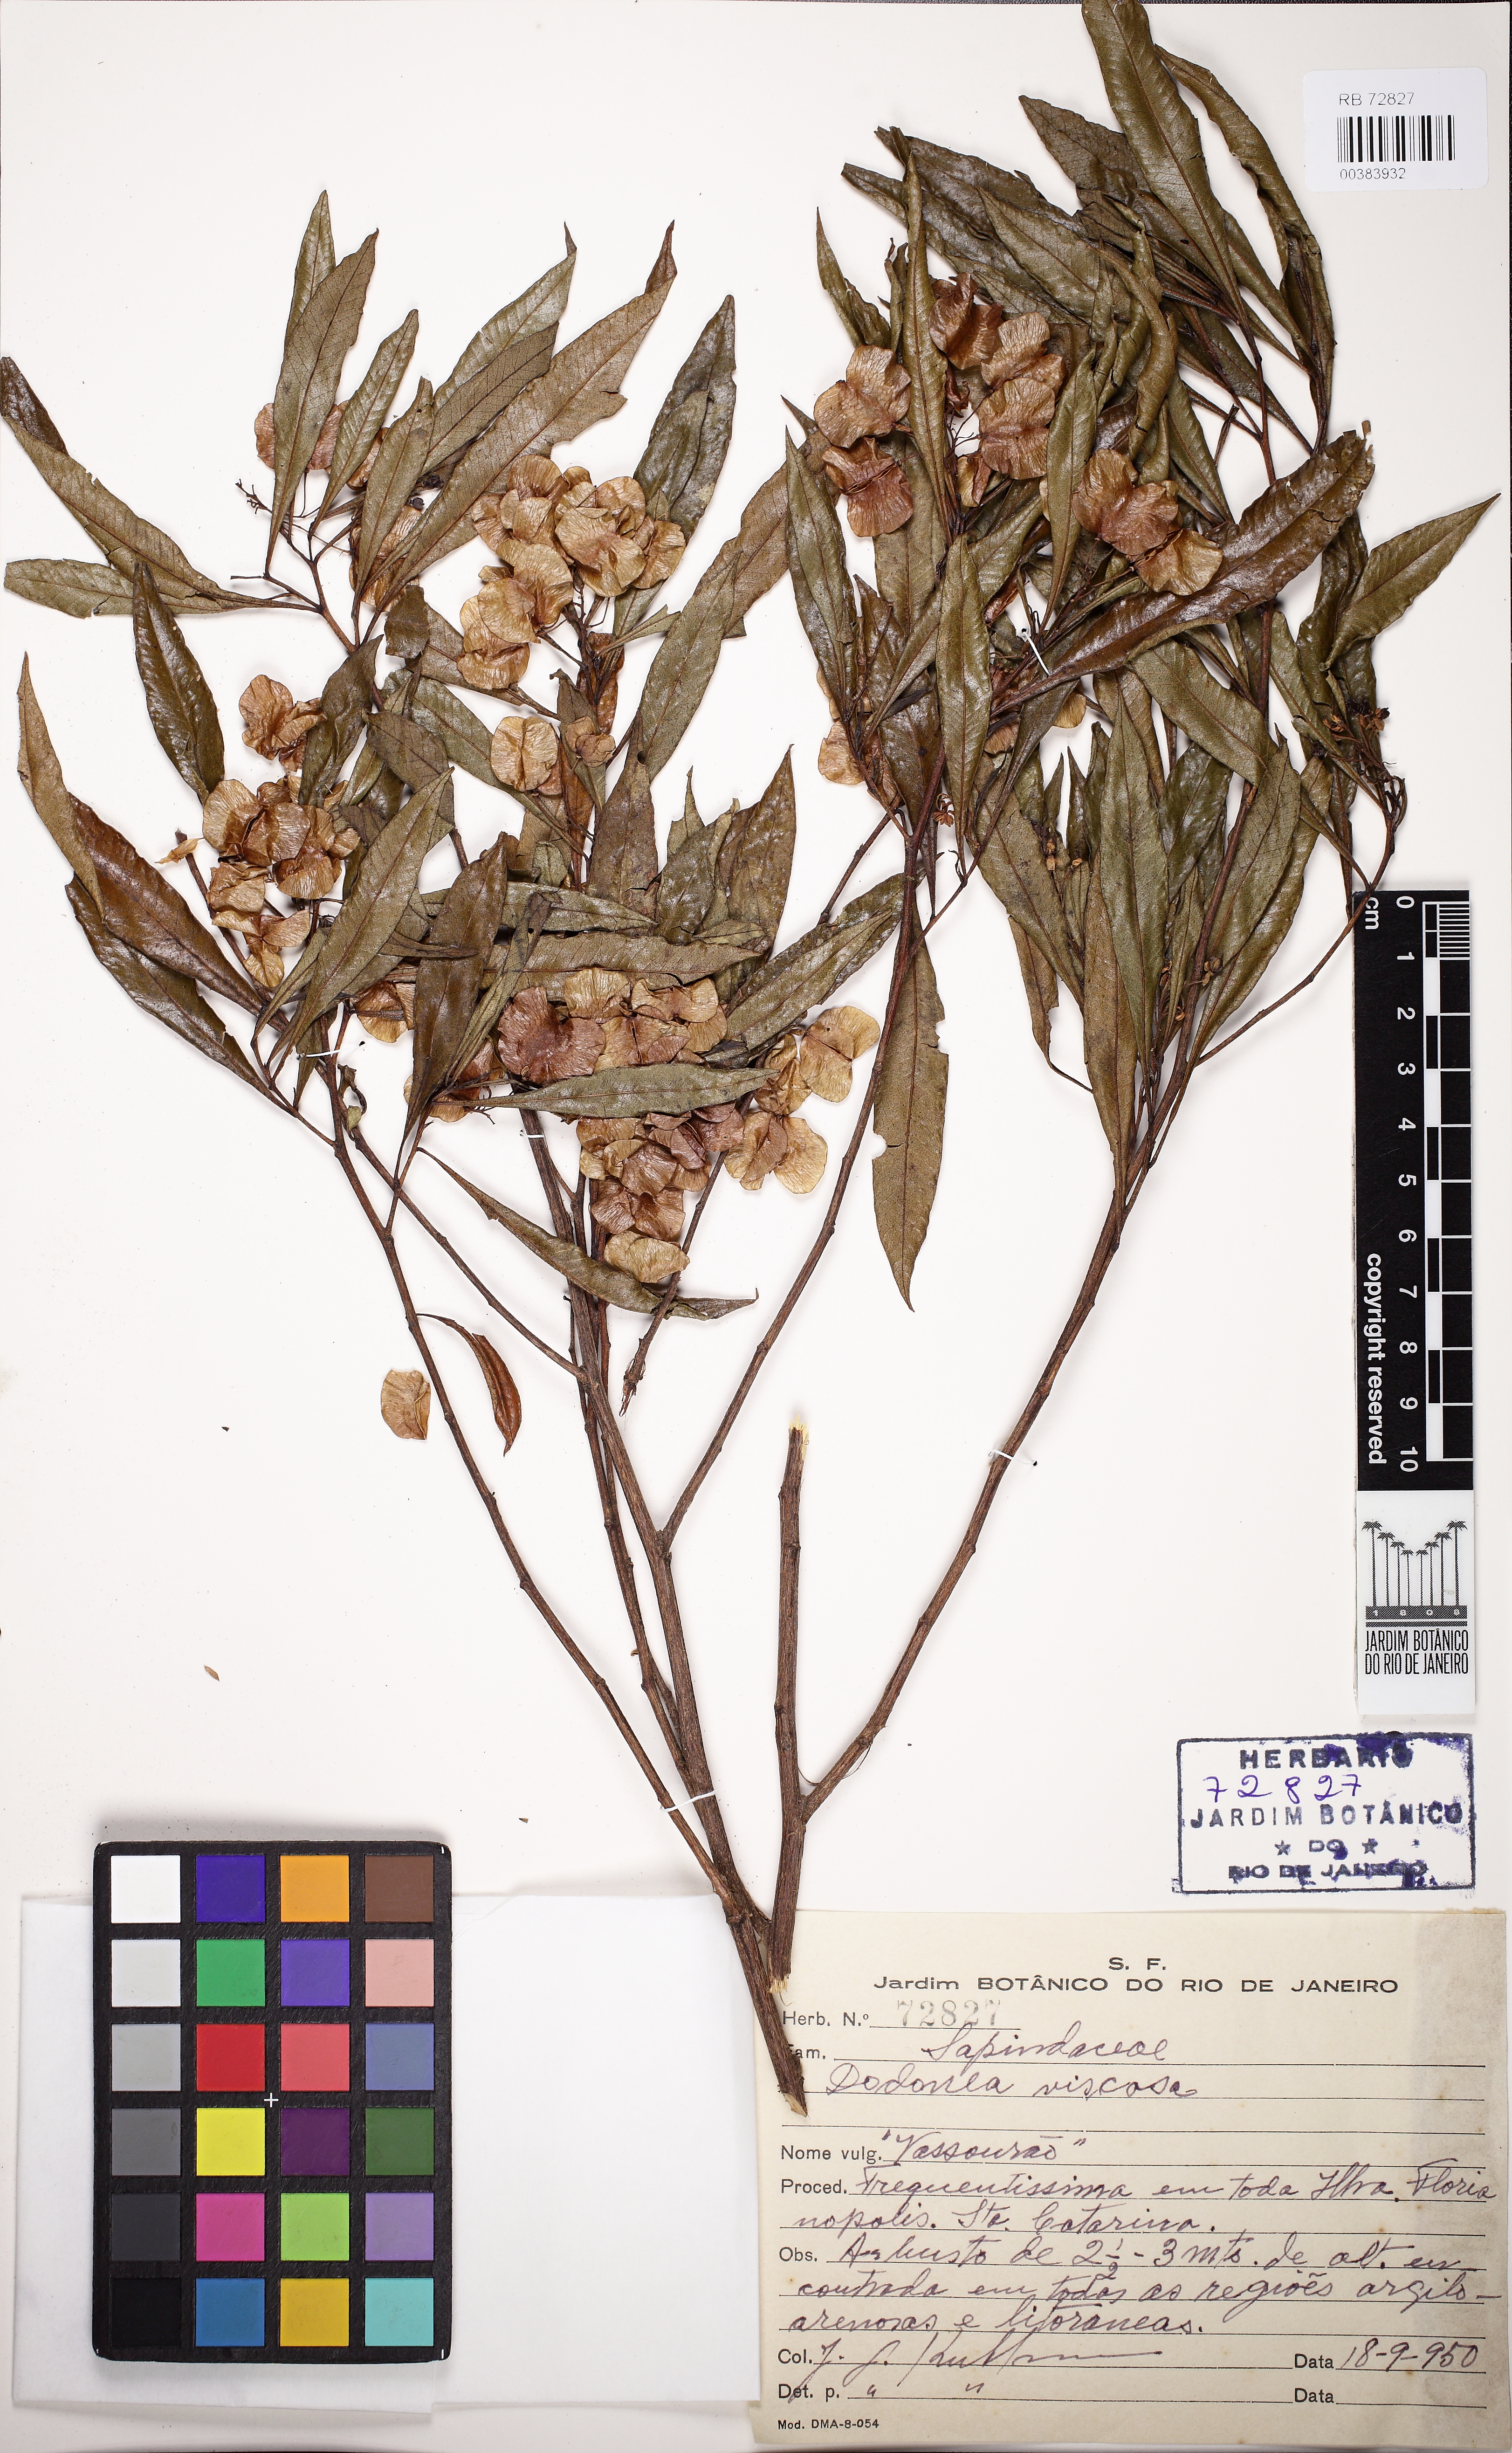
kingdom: Plantae
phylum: Tracheophyta
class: Magnoliopsida
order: Sapindales
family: Sapindaceae
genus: Dodonaea
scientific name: Dodonaea viscosa
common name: Hopbush
